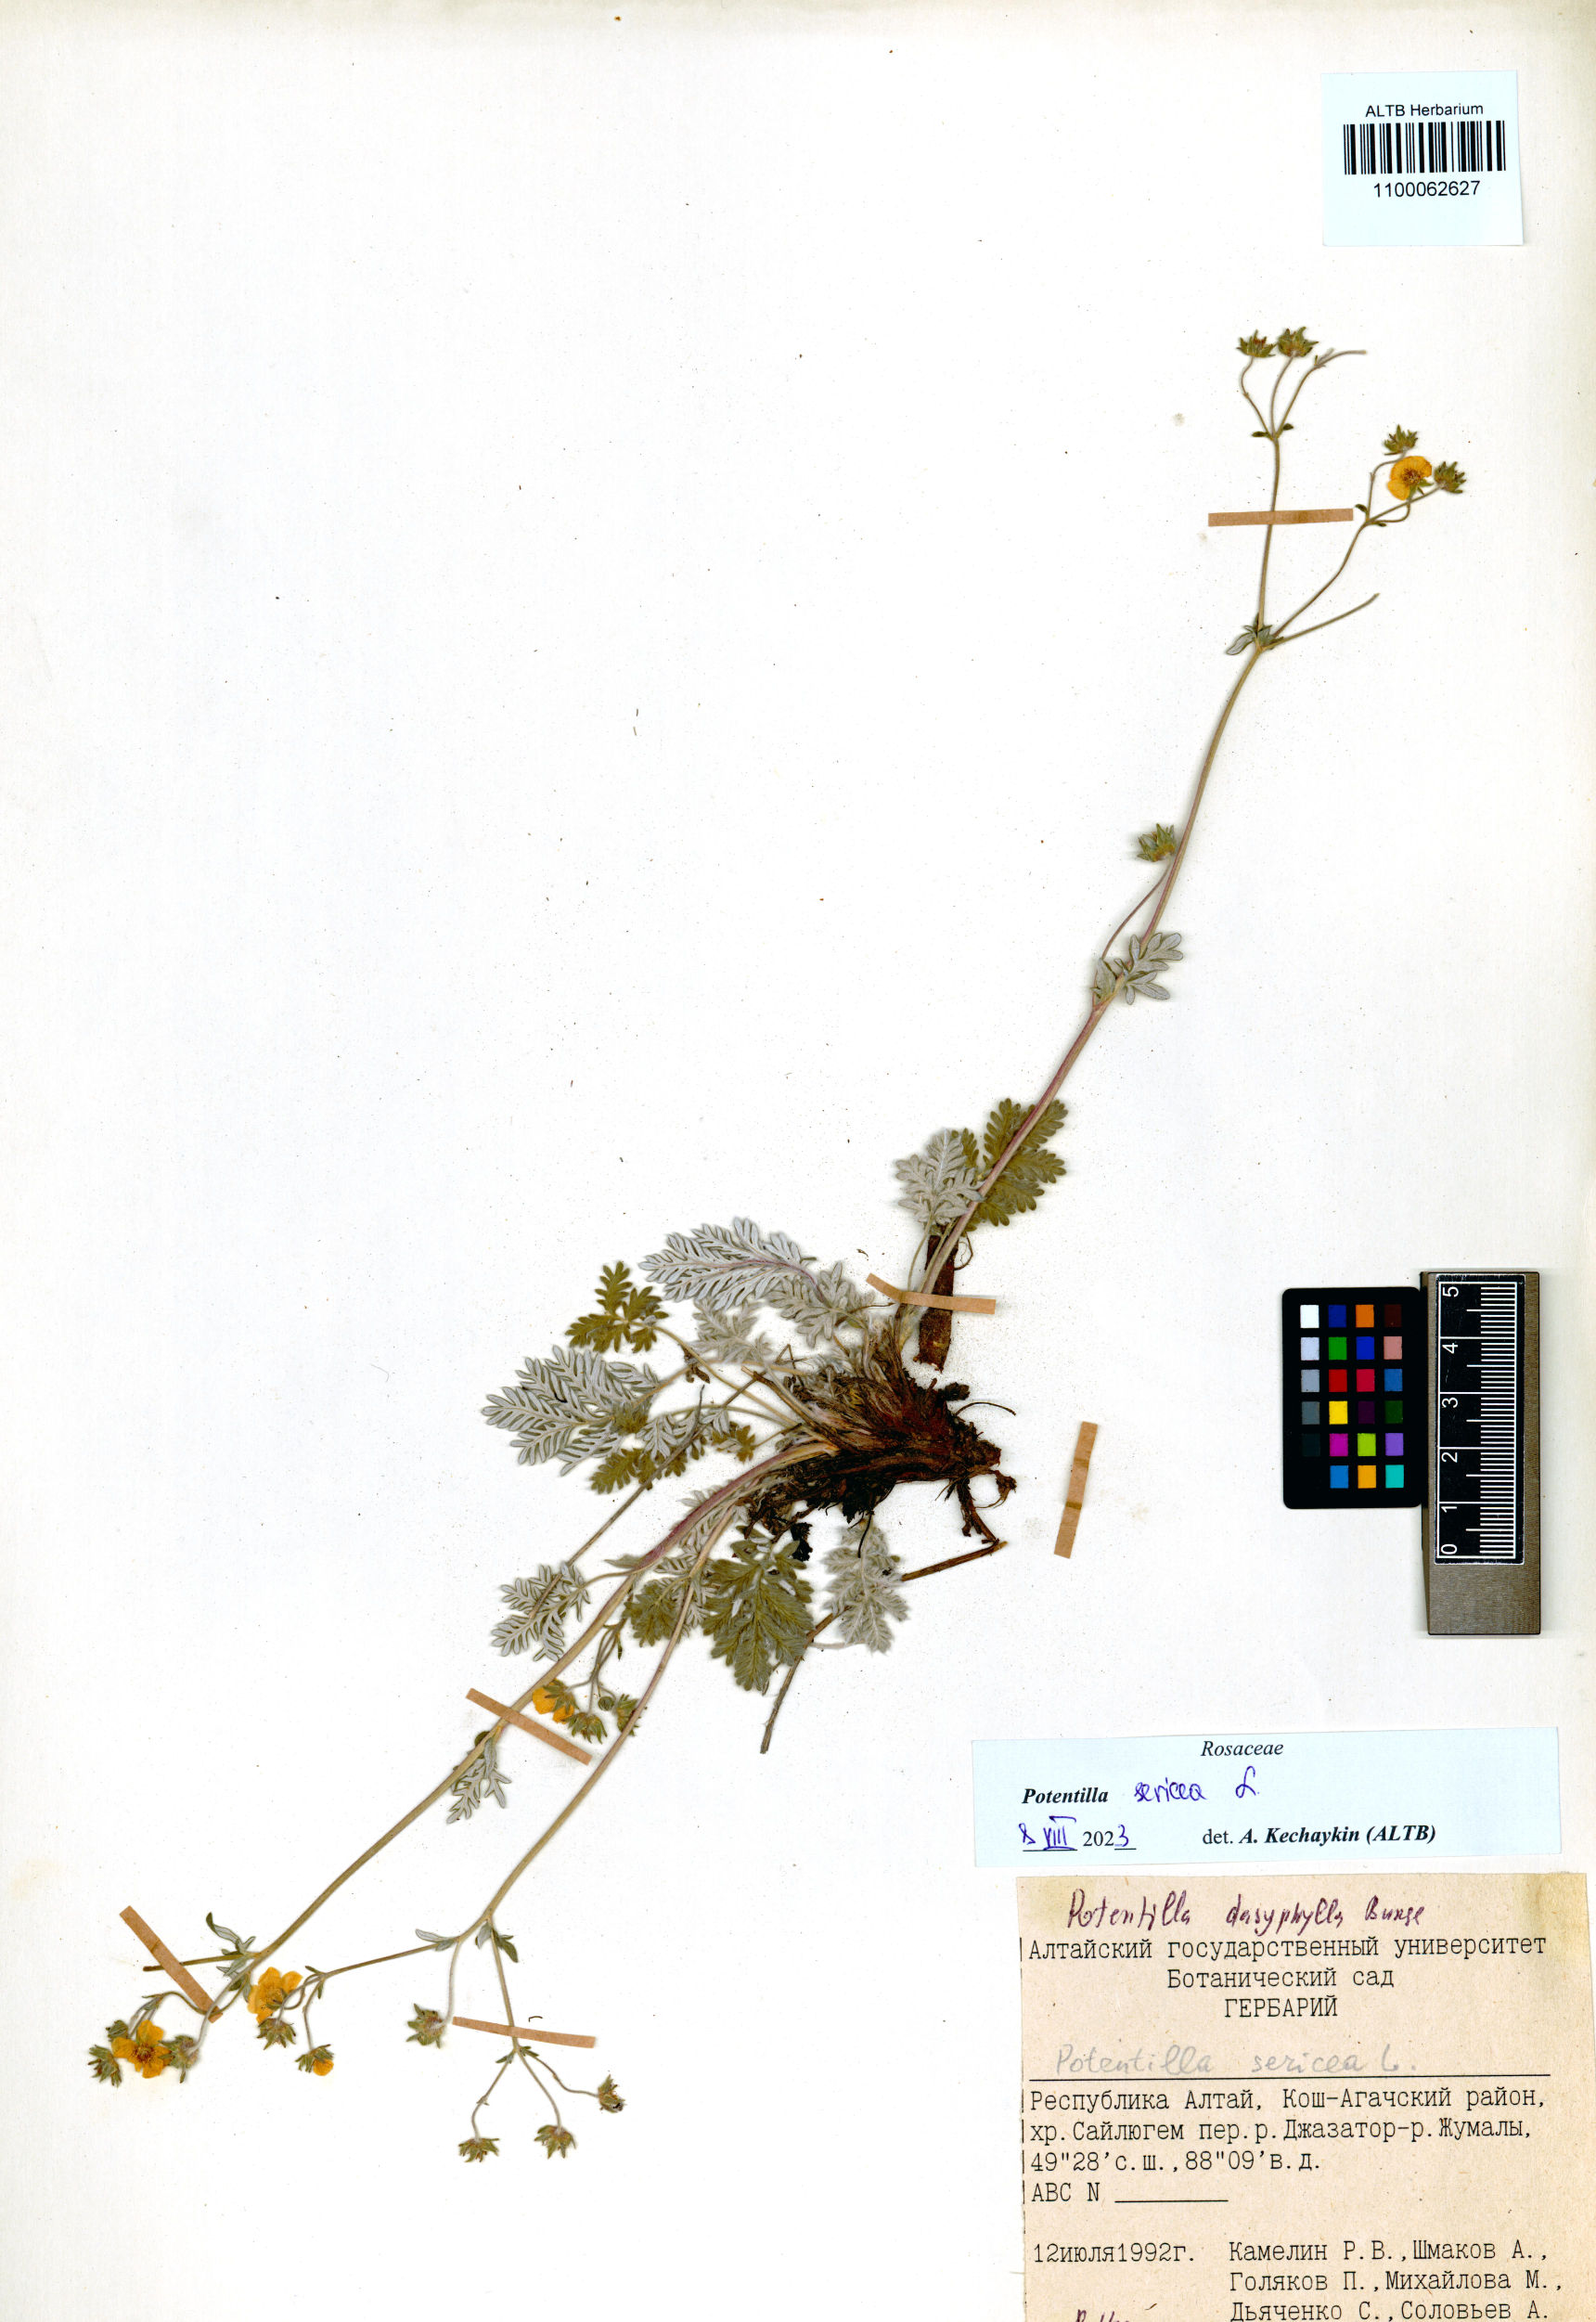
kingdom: Plantae
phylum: Tracheophyta
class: Magnoliopsida
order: Rosales
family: Rosaceae
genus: Potentilla
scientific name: Potentilla sericea
